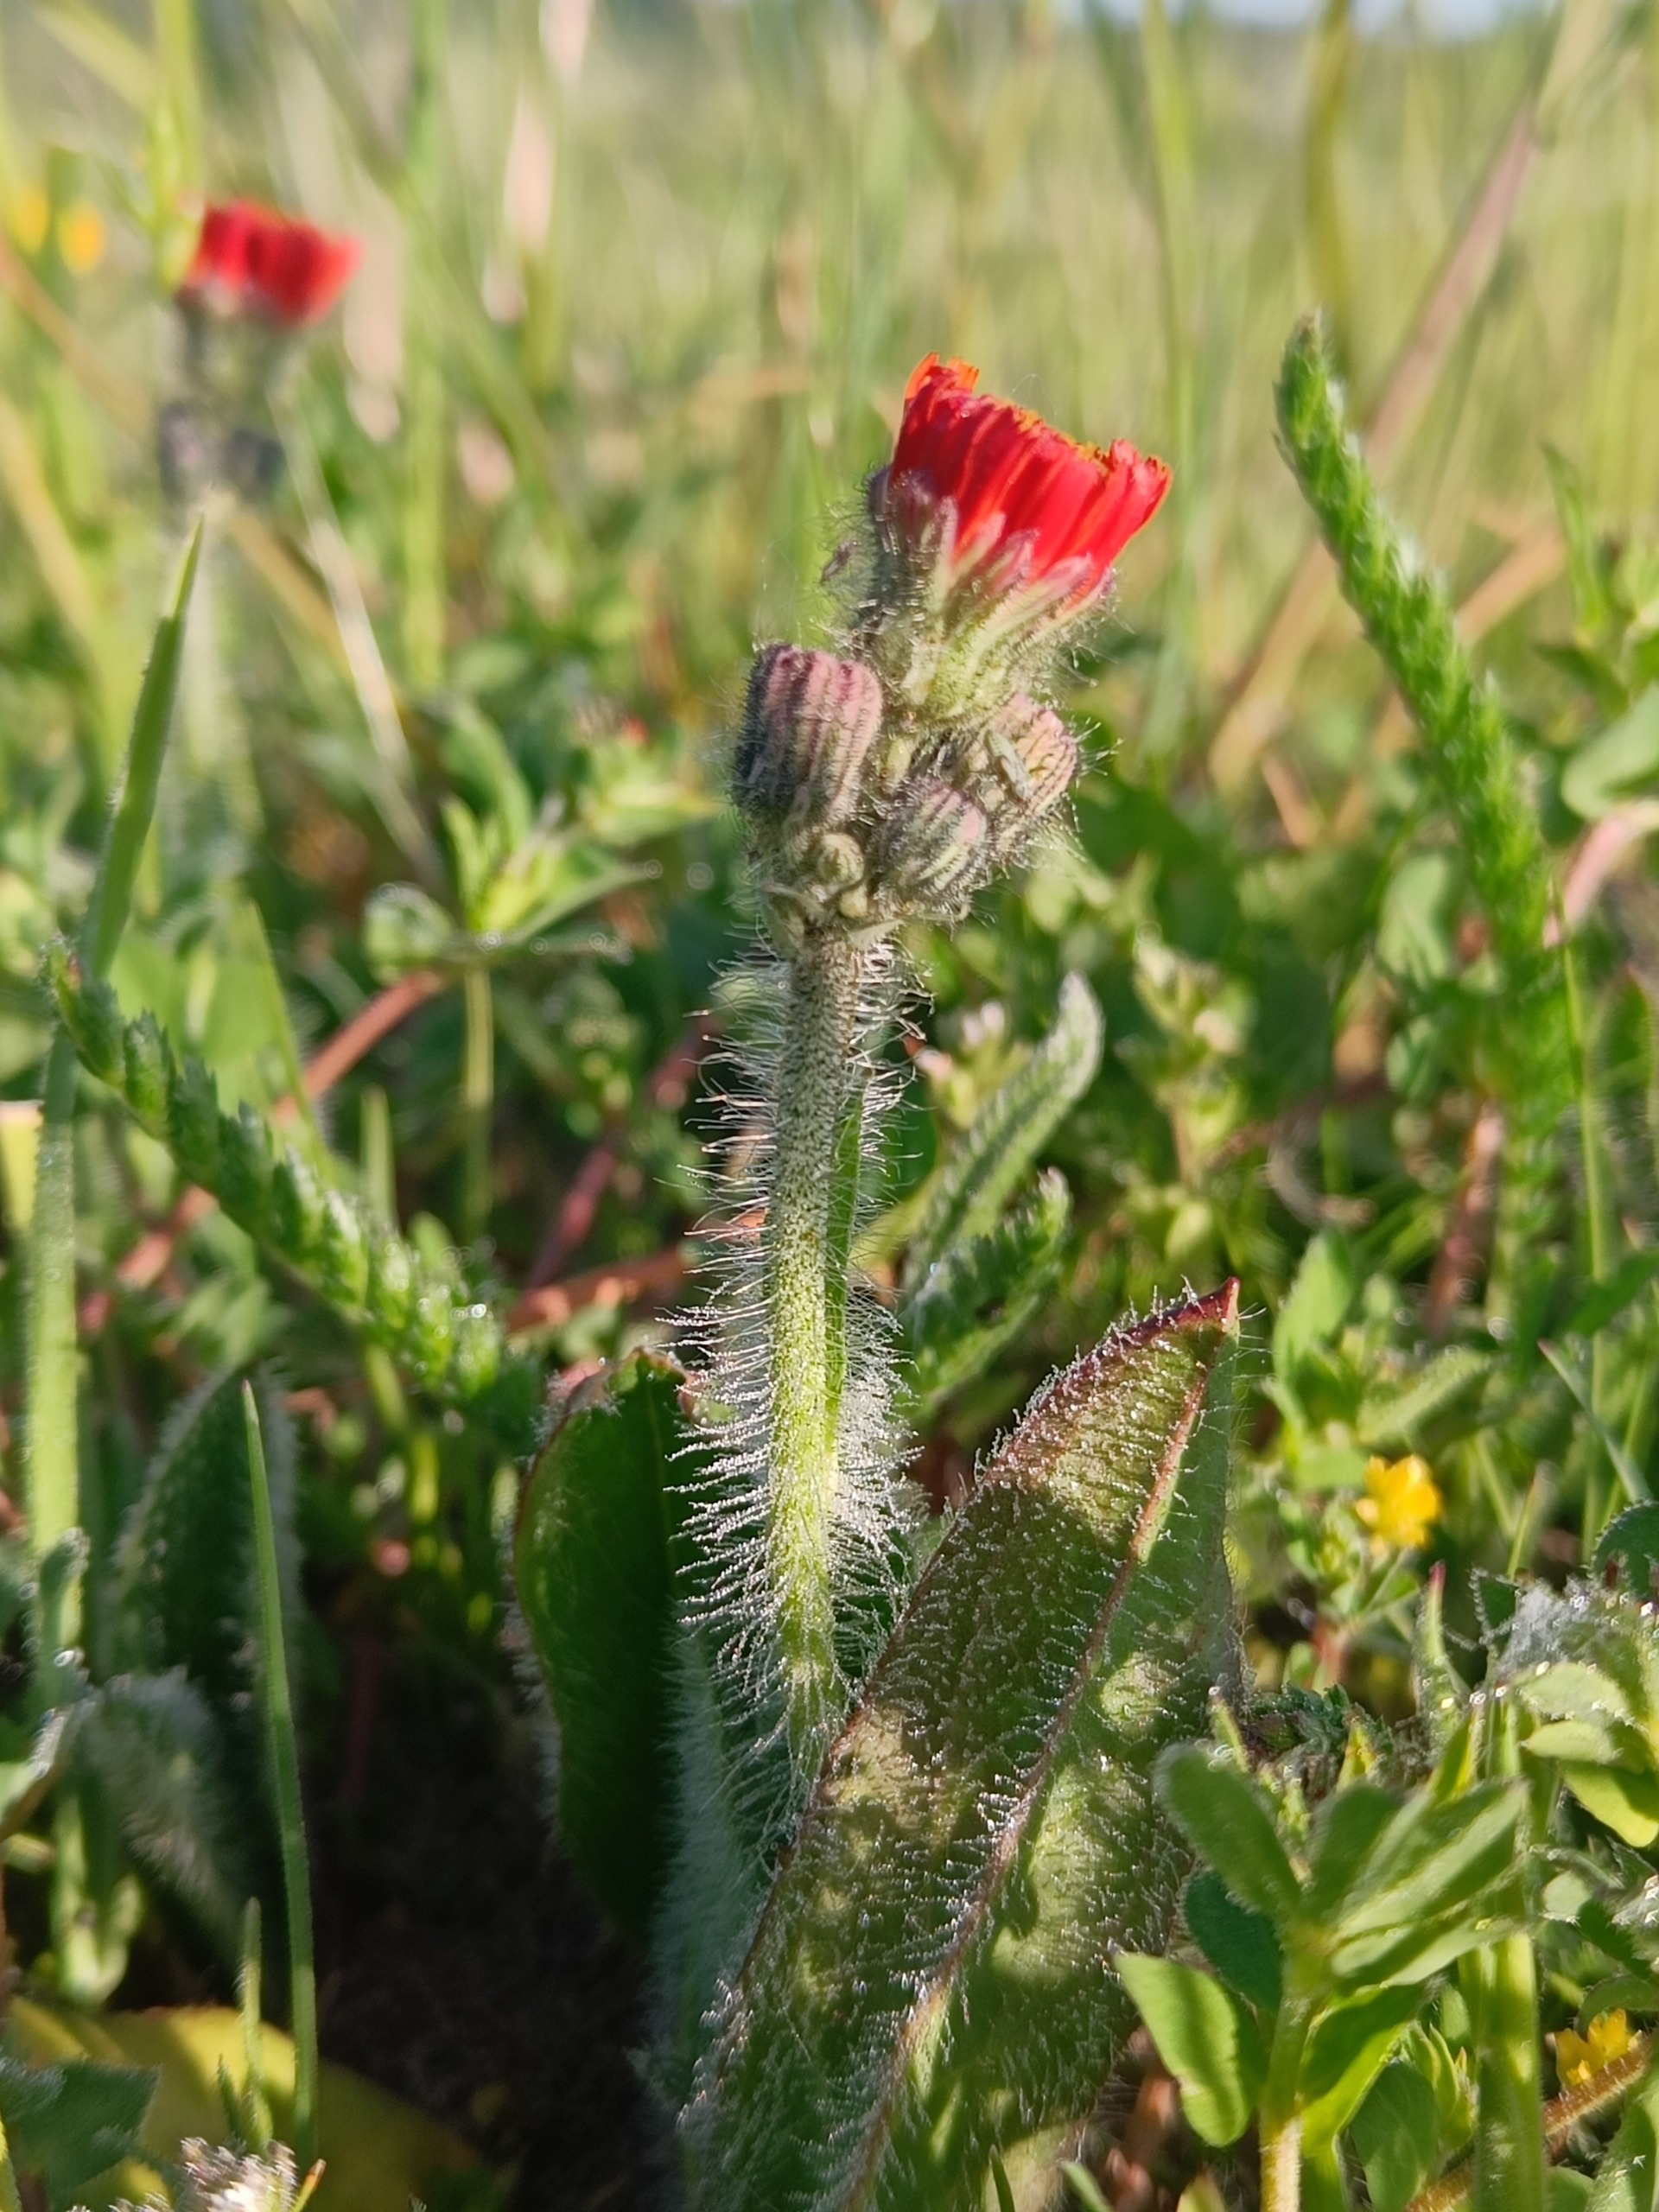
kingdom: Plantae
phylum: Tracheophyta
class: Magnoliopsida
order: Asterales
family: Asteraceae
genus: Pilosella
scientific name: Pilosella aurantiaca
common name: Pomerans-høgeurt
